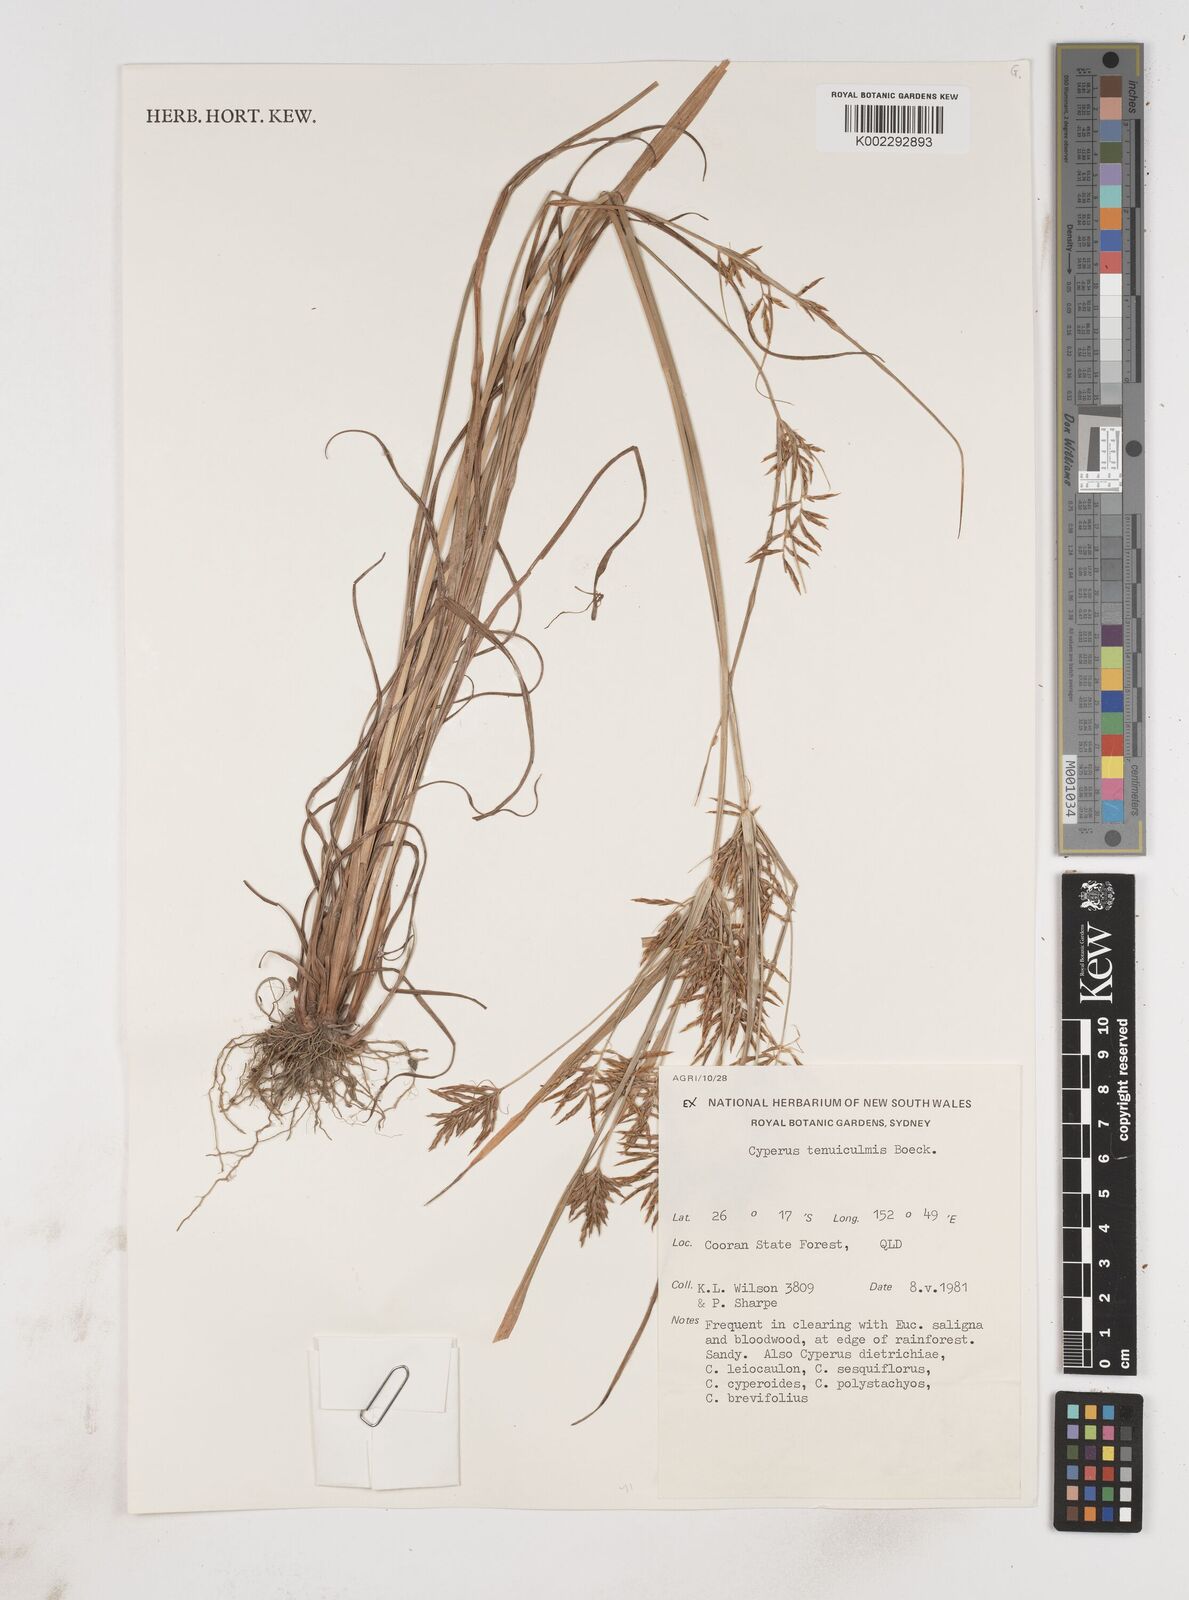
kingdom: Plantae
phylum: Tracheophyta
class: Liliopsida
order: Poales
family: Cyperaceae
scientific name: Cyperaceae
